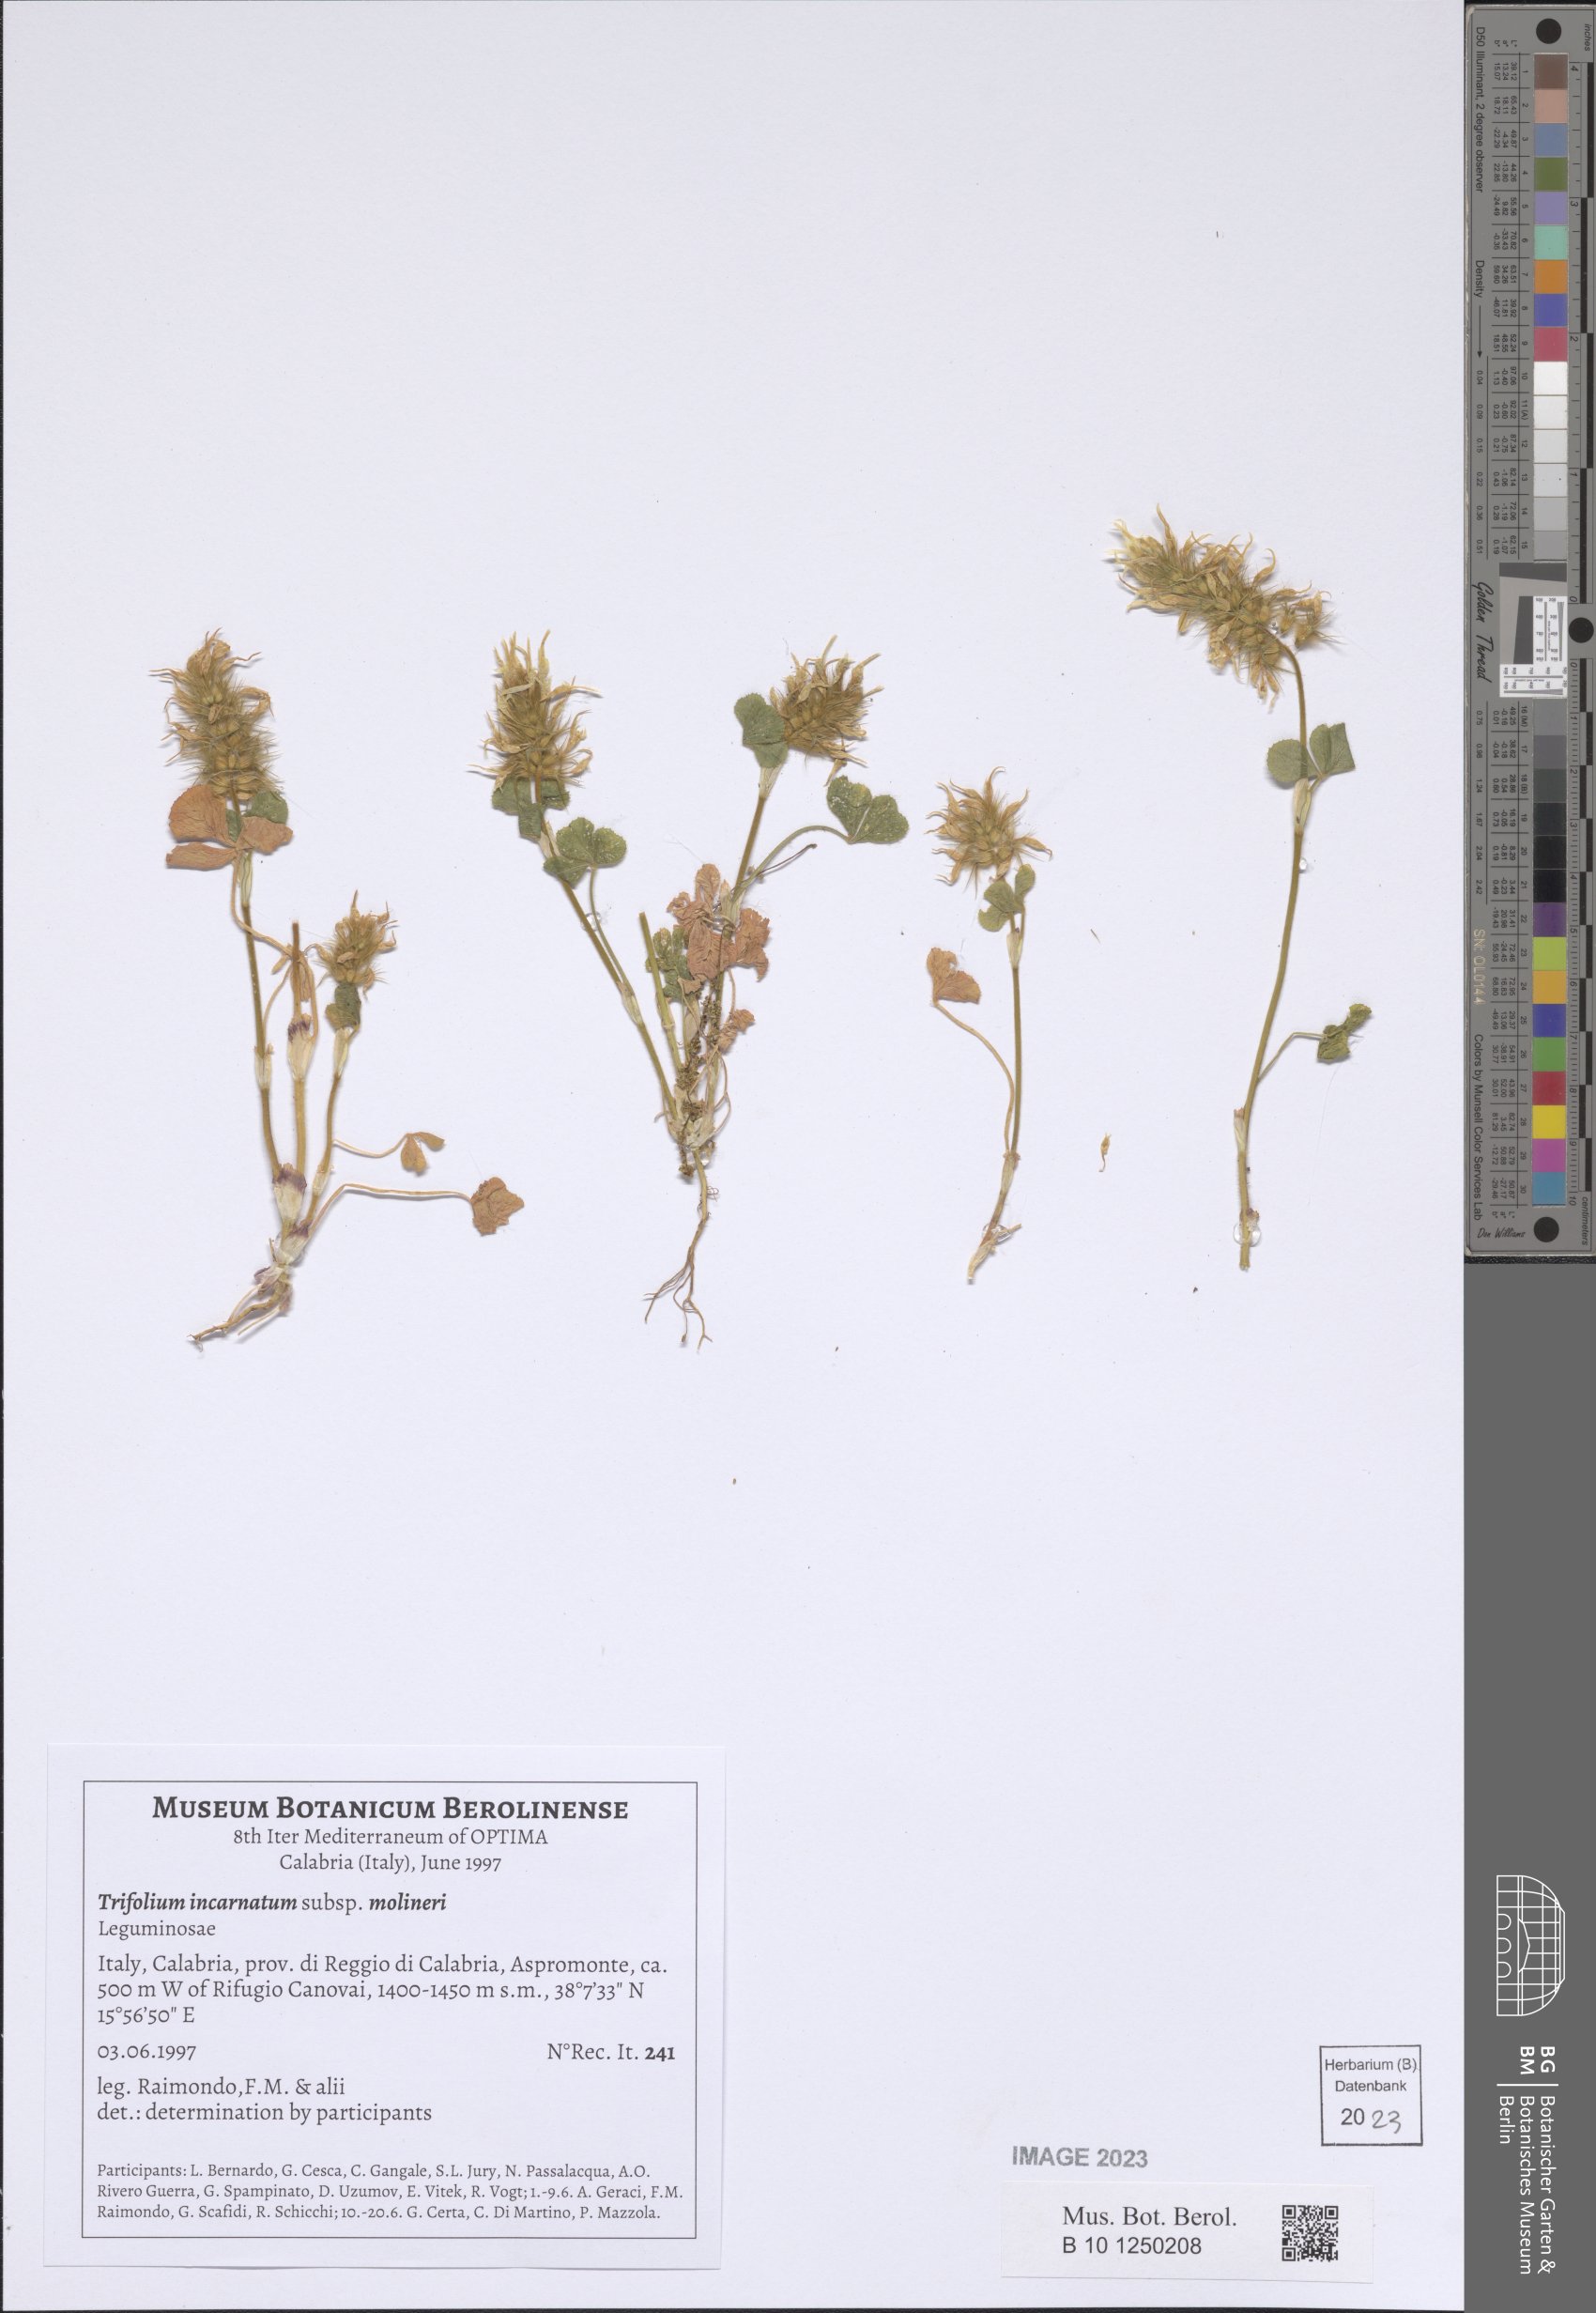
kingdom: Plantae
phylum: Tracheophyta
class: Magnoliopsida
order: Fabales
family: Fabaceae
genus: Trifolium
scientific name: Trifolium incarnatum
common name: Crimson clover
